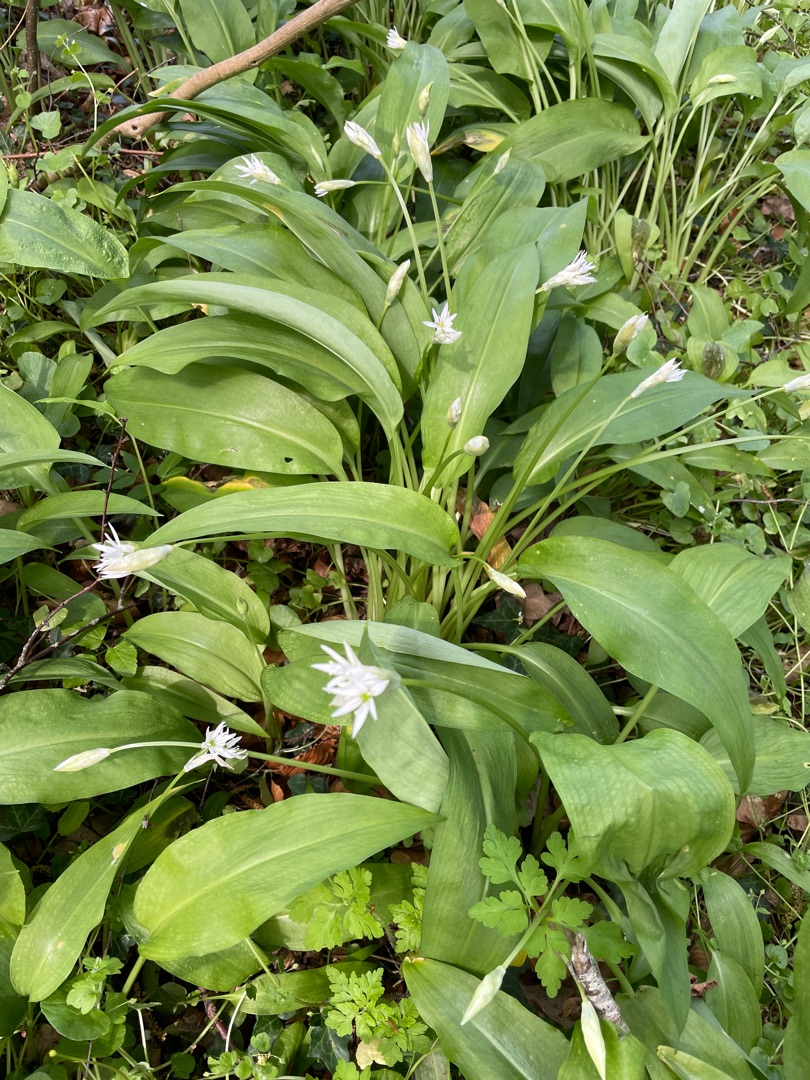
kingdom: Plantae
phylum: Tracheophyta
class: Liliopsida
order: Asparagales
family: Amaryllidaceae
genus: Allium
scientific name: Allium ursinum
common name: Rams-løg
